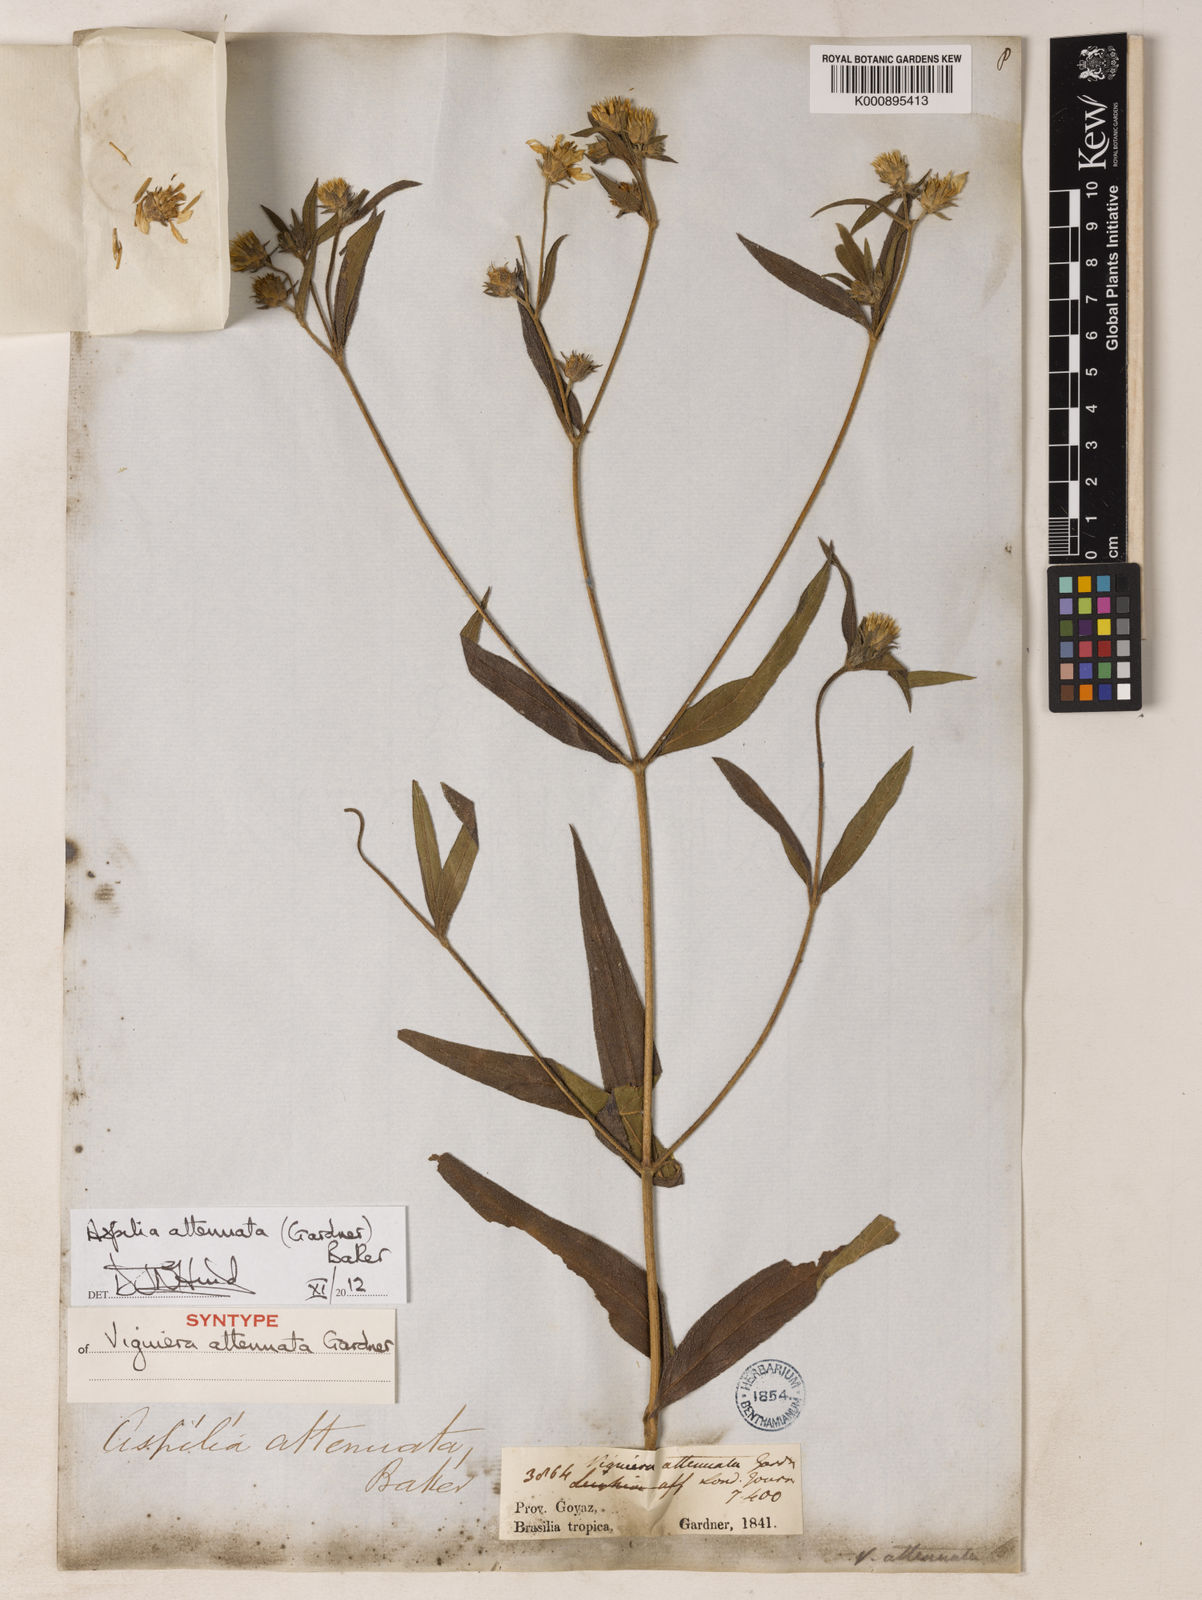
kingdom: Plantae
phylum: Tracheophyta
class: Magnoliopsida
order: Asterales
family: Asteraceae
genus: Wedelia
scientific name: Wedelia attenuata
